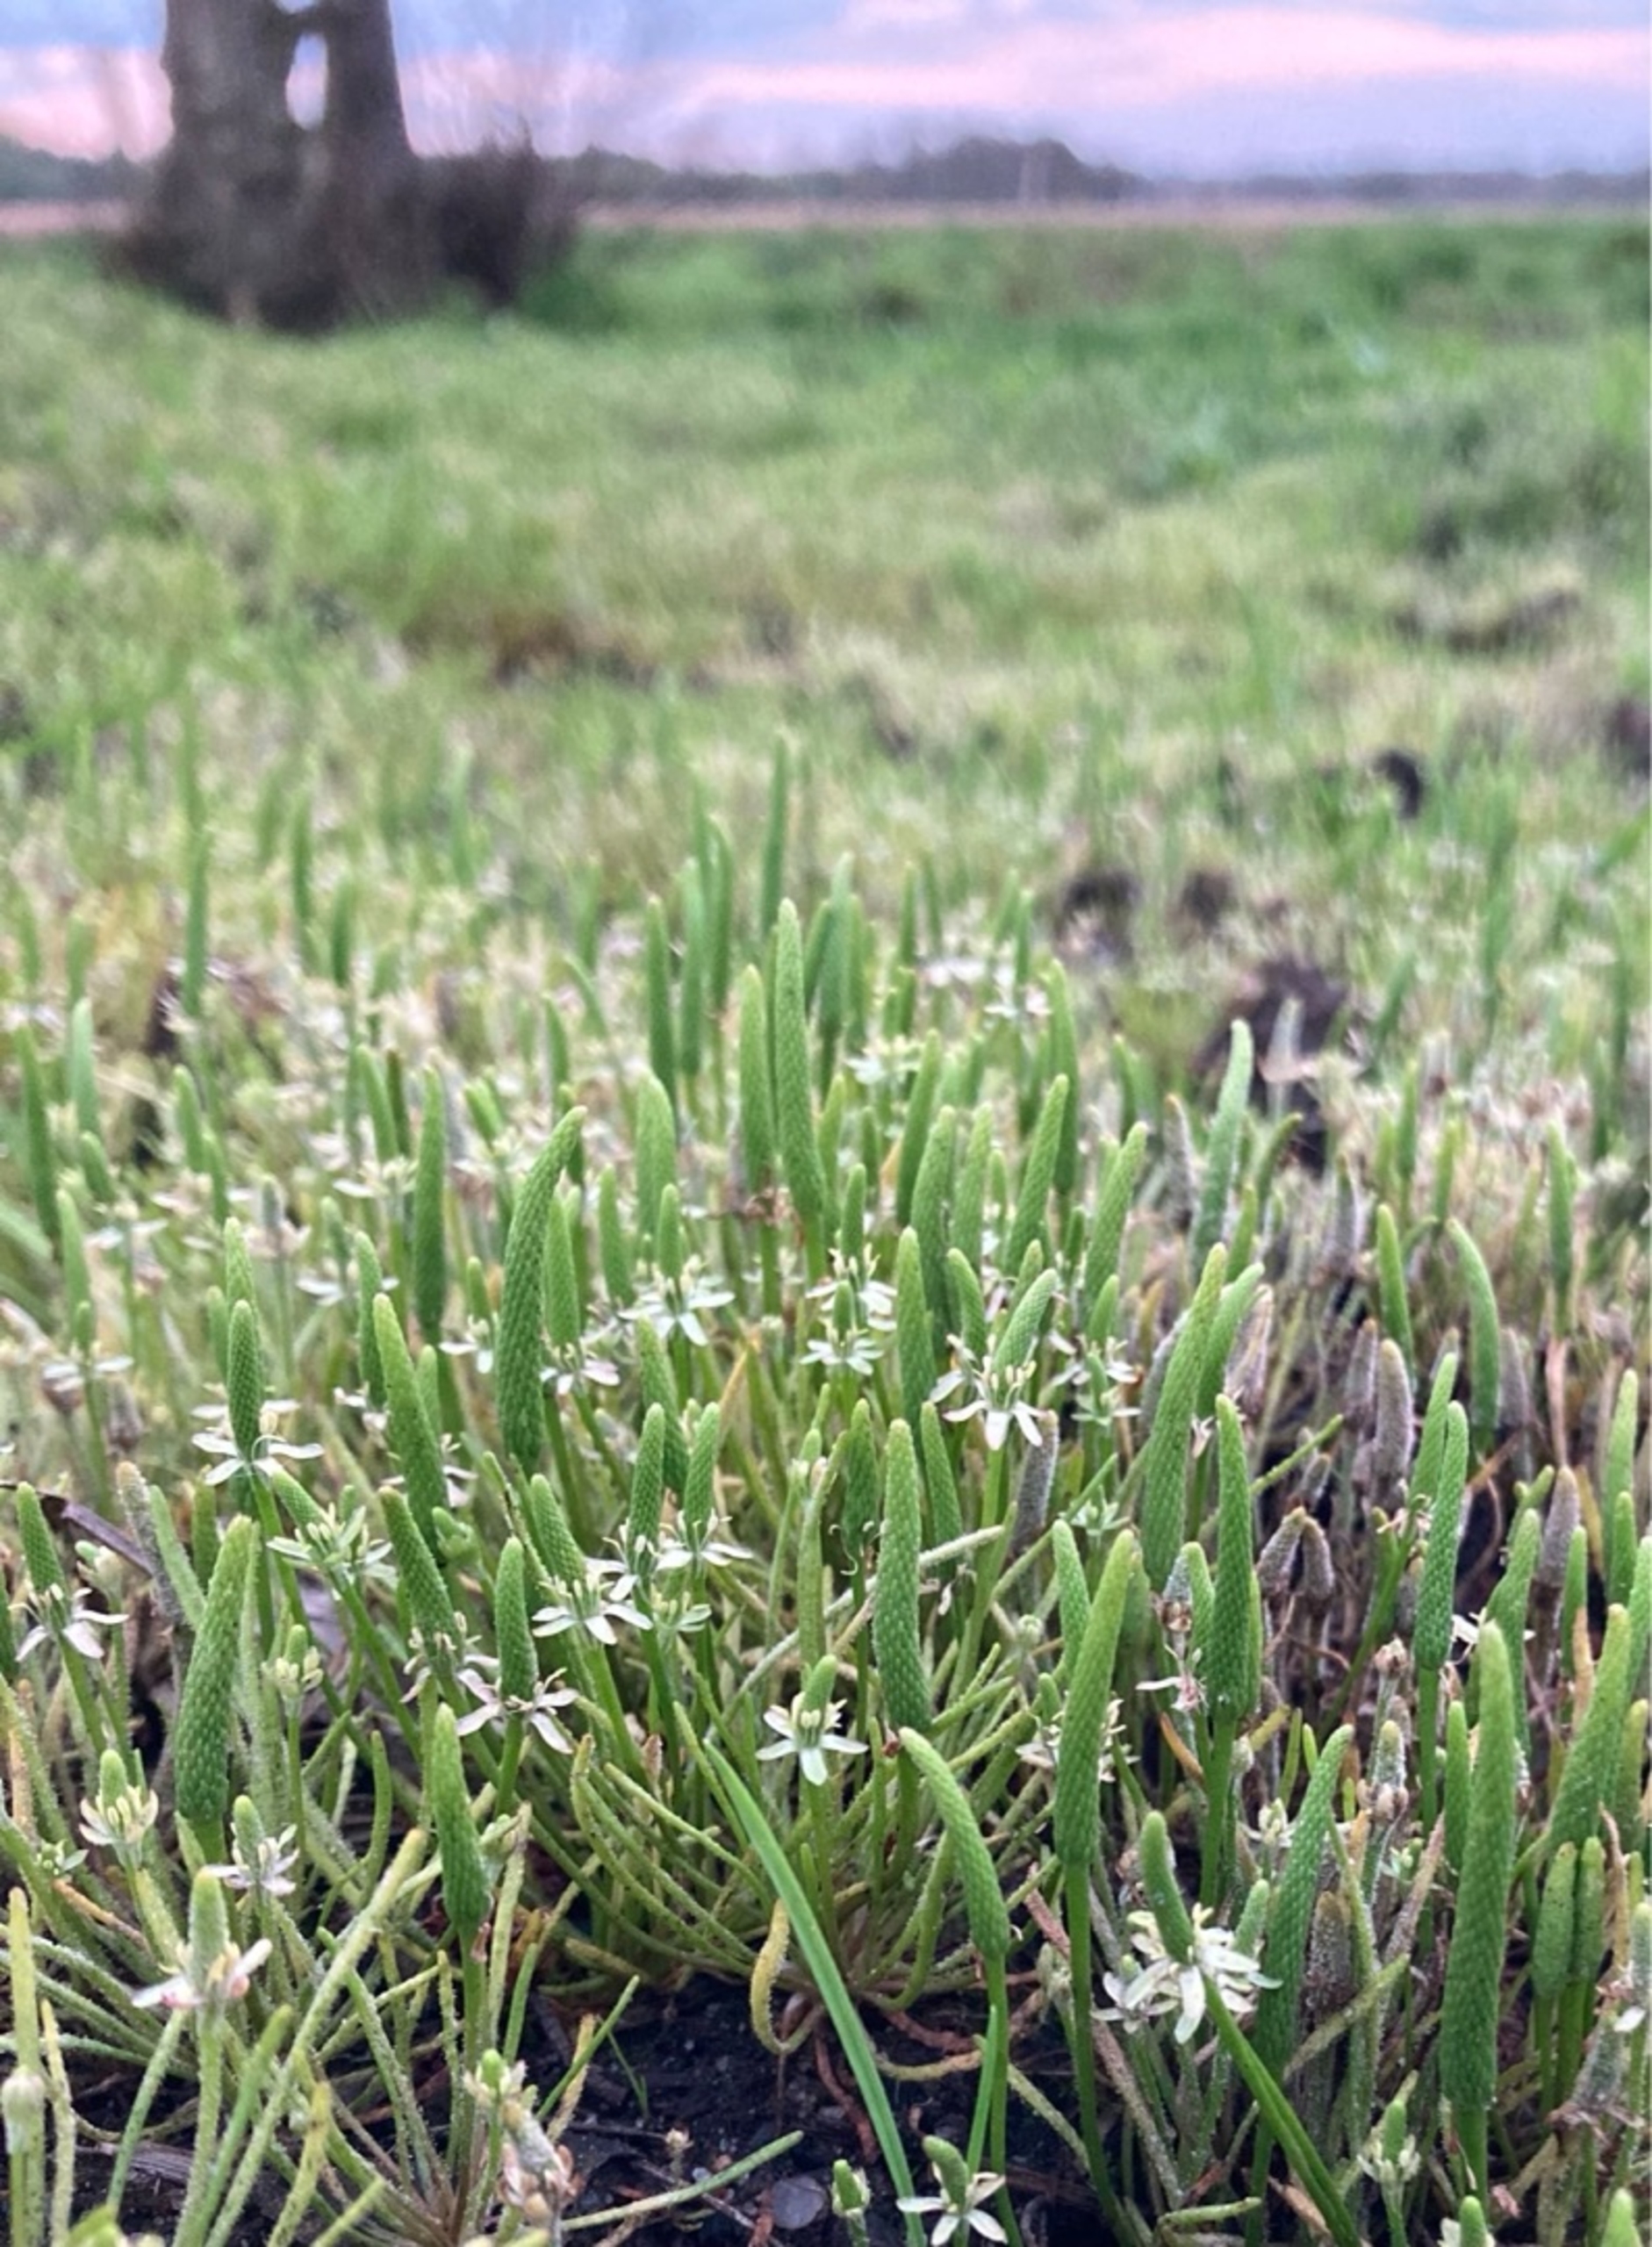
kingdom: Plantae
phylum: Tracheophyta
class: Magnoliopsida
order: Ranunculales
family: Ranunculaceae
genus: Myosurus
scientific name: Myosurus minimus
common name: Musehale
